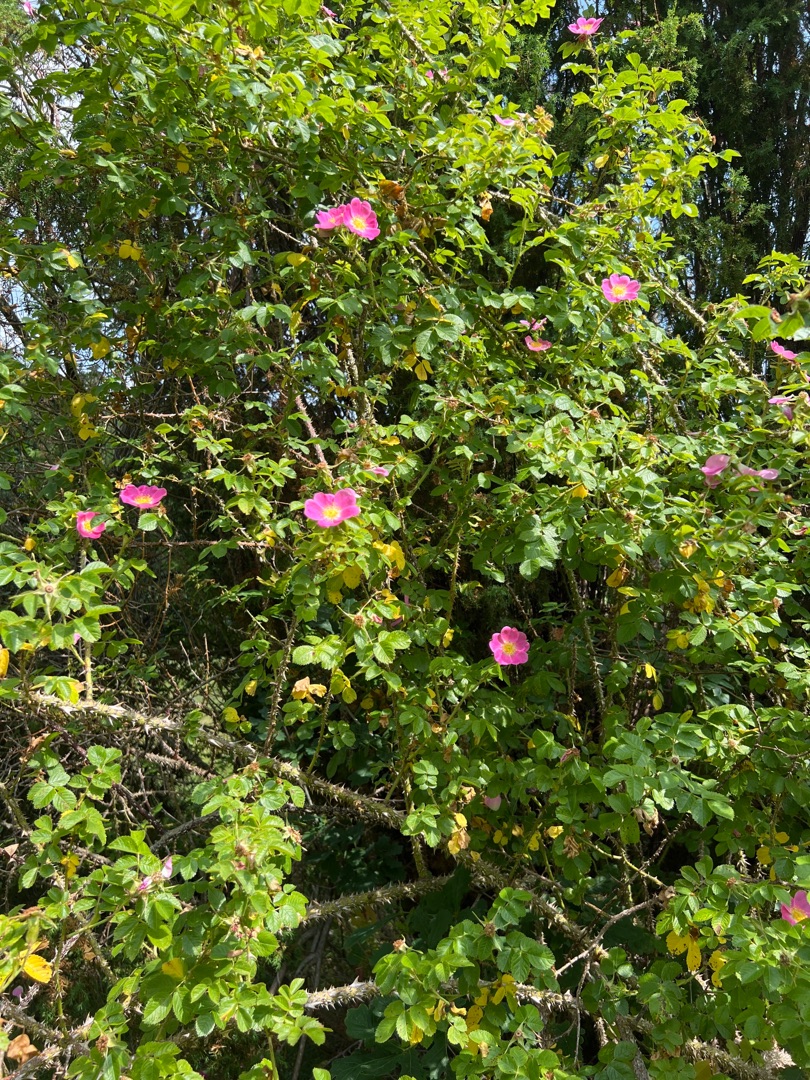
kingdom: Plantae
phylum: Tracheophyta
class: Magnoliopsida
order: Rosales
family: Rosaceae
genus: Rosa
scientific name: Rosa rubiginosa
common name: Æble-rose
